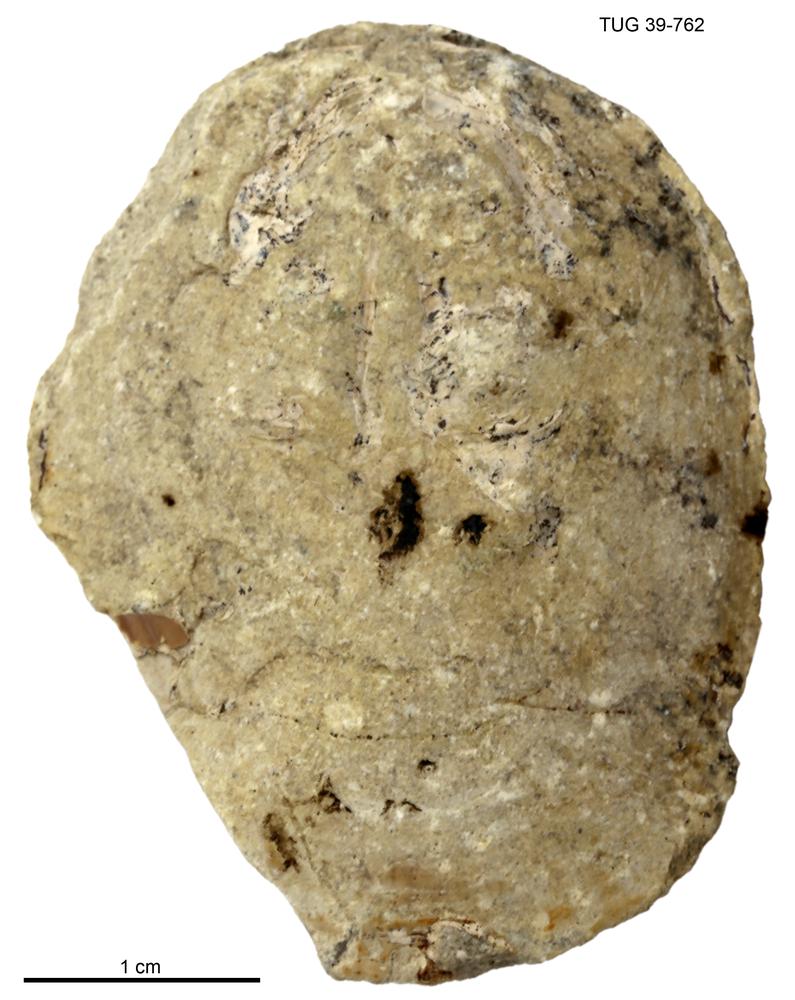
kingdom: Animalia
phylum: Brachiopoda
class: Lingulata
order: Lingulida
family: Pseudolingulidae
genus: Pseudolingula
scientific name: Pseudolingula Crania quadrata
